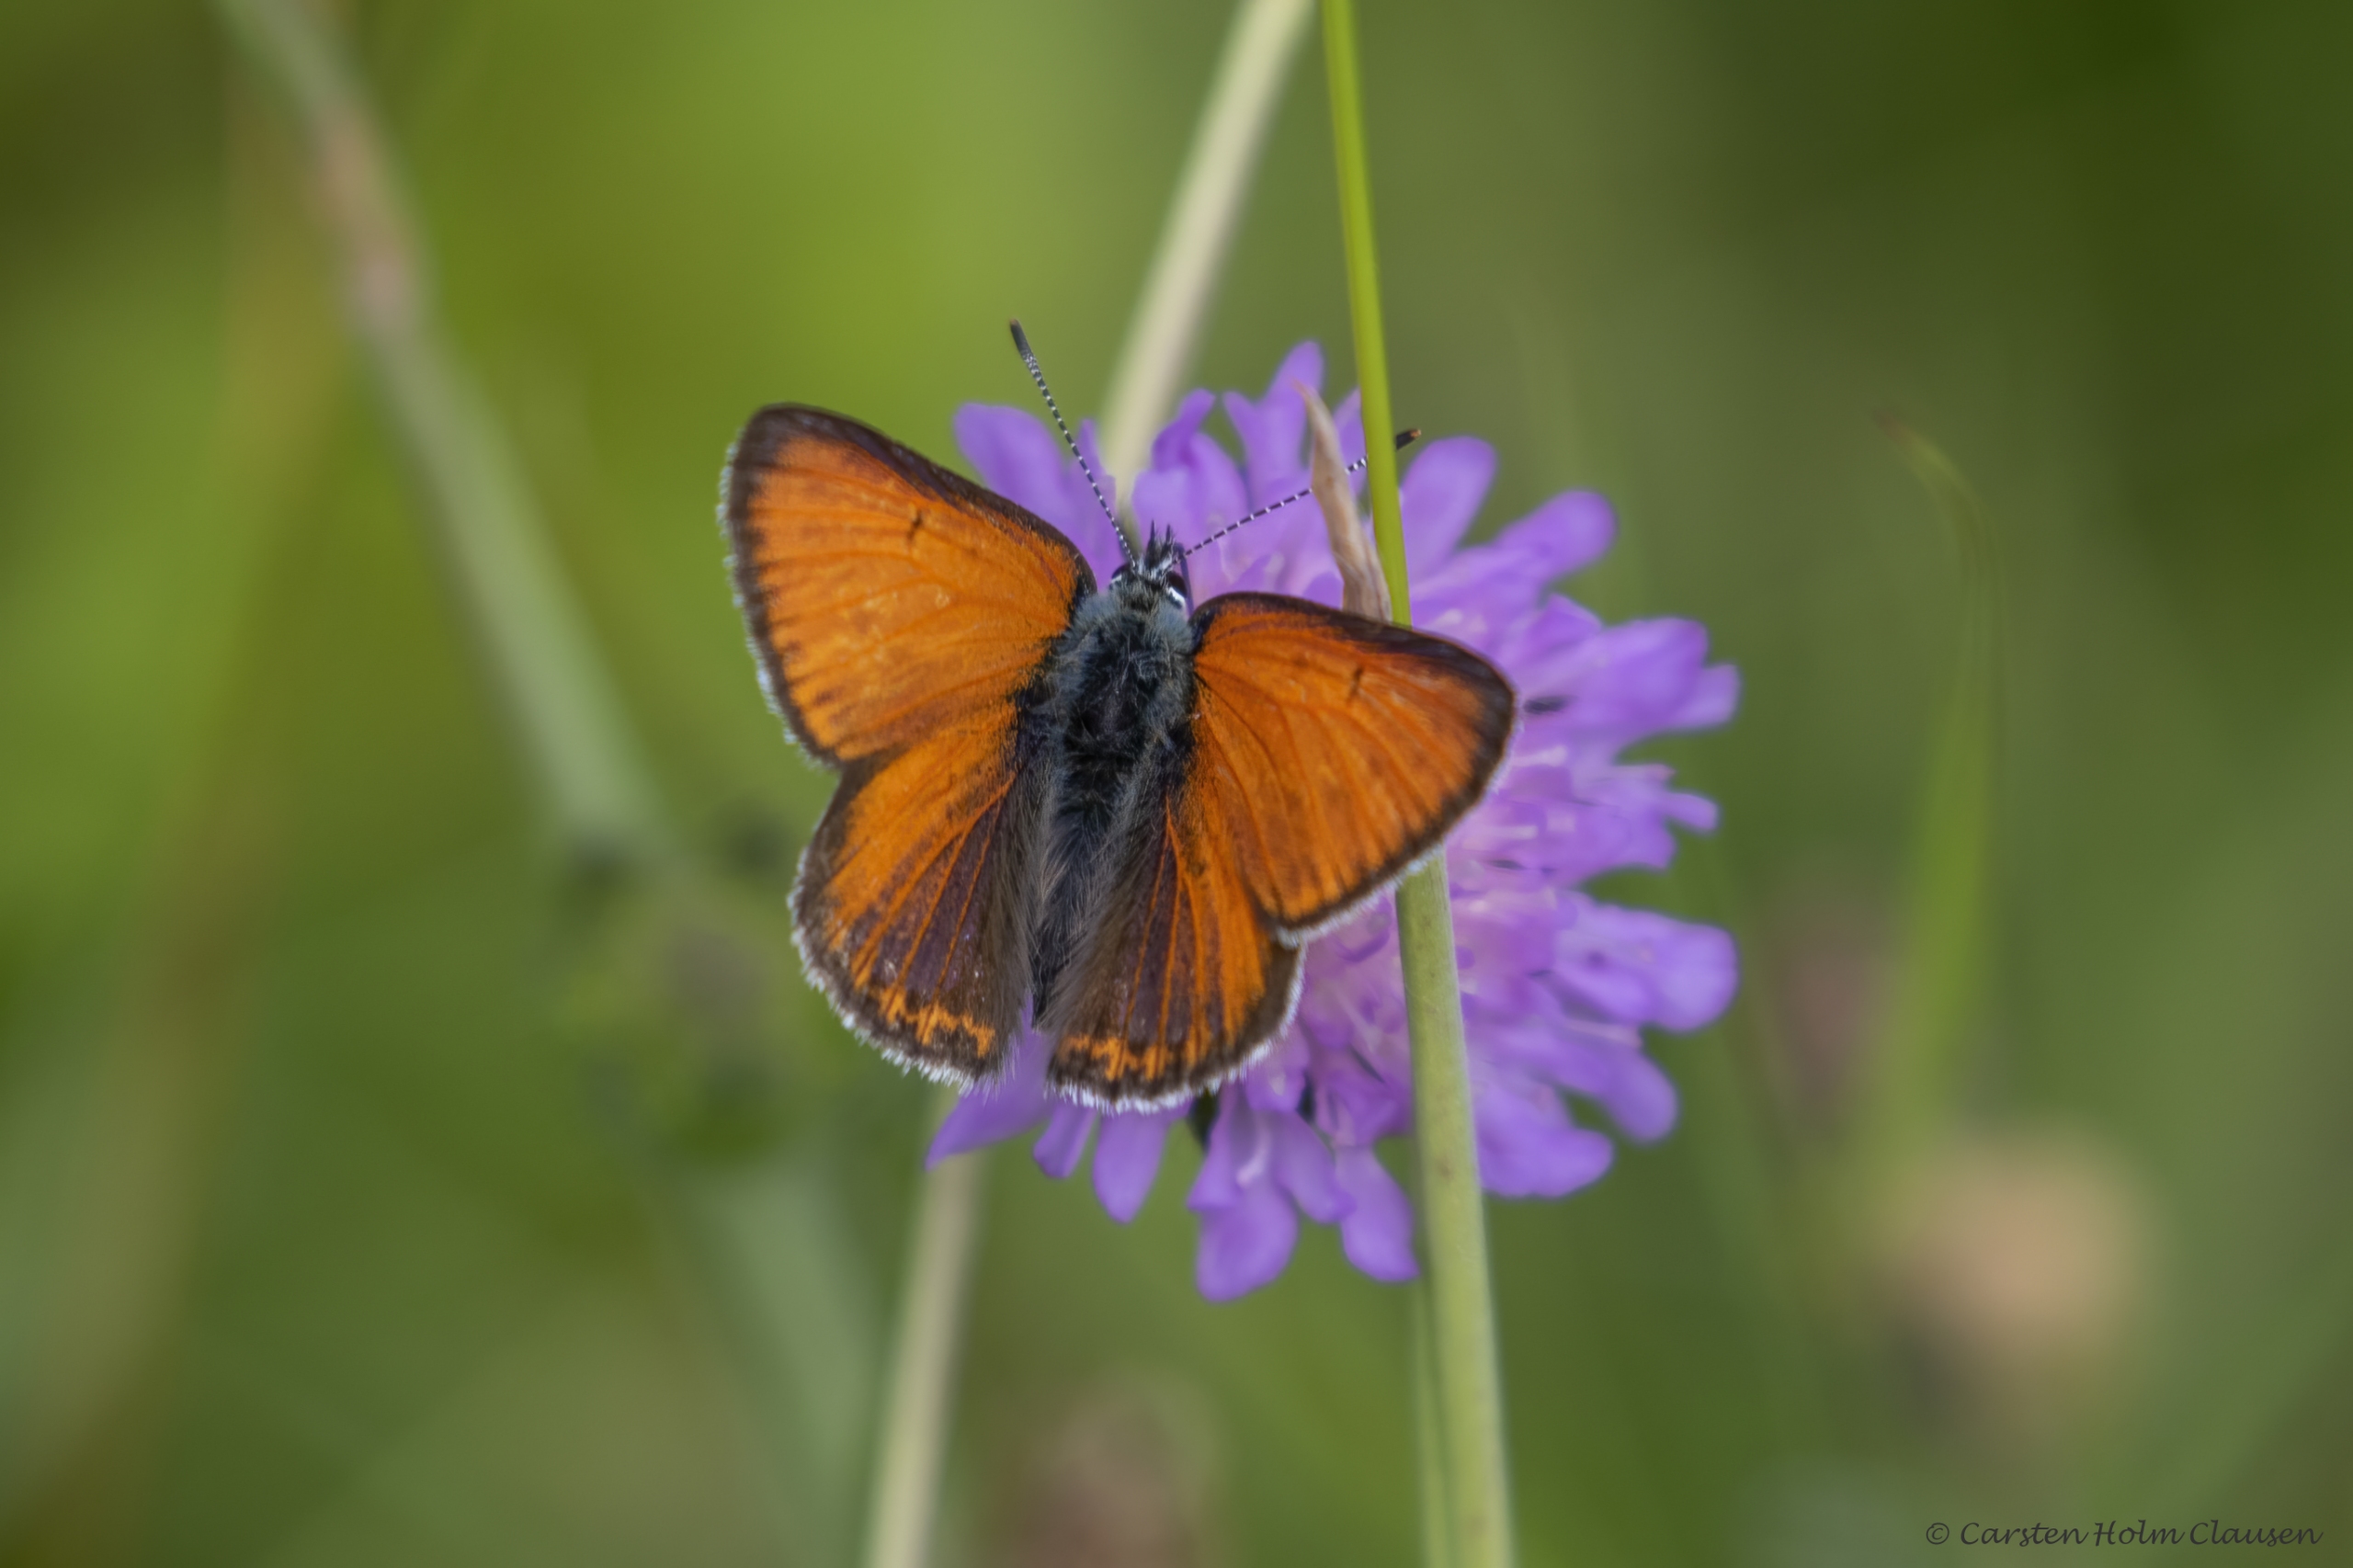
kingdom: Animalia
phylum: Arthropoda
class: Insecta
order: Lepidoptera
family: Lycaenidae
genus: Palaeochrysophanus
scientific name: Palaeochrysophanus hippothoe
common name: Violetrandet ildfugl
